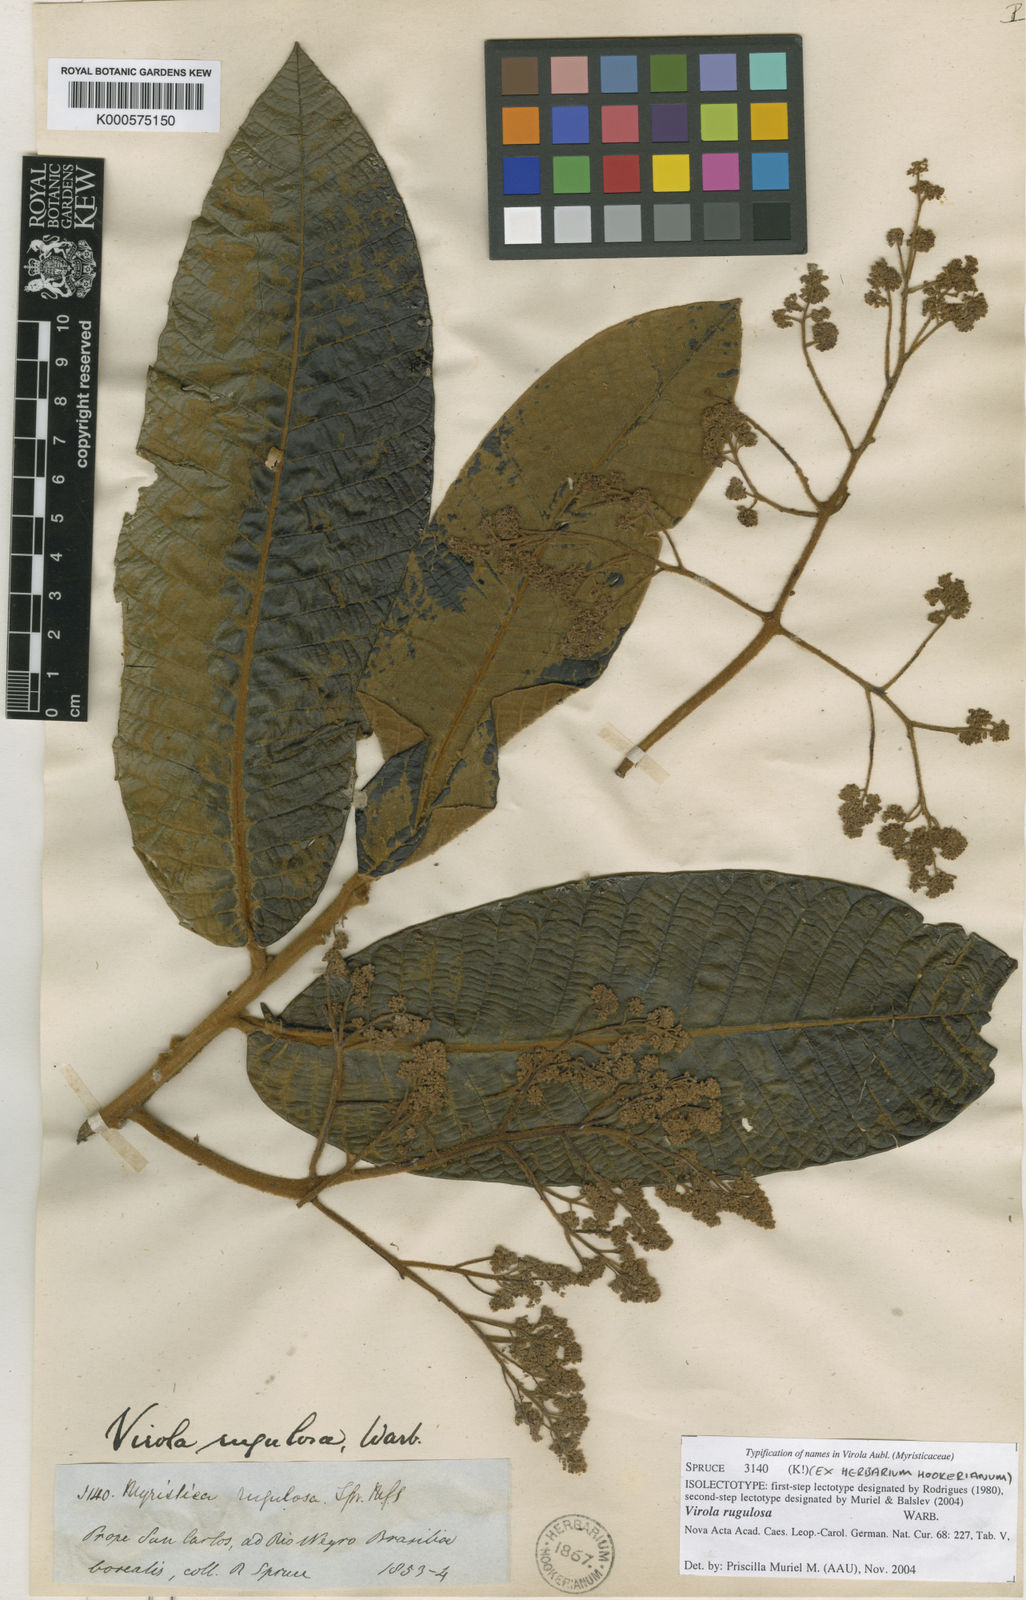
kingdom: Plantae
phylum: Tracheophyta
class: Magnoliopsida
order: Magnoliales
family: Myristicaceae
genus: Virola
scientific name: Virola rugulosa
